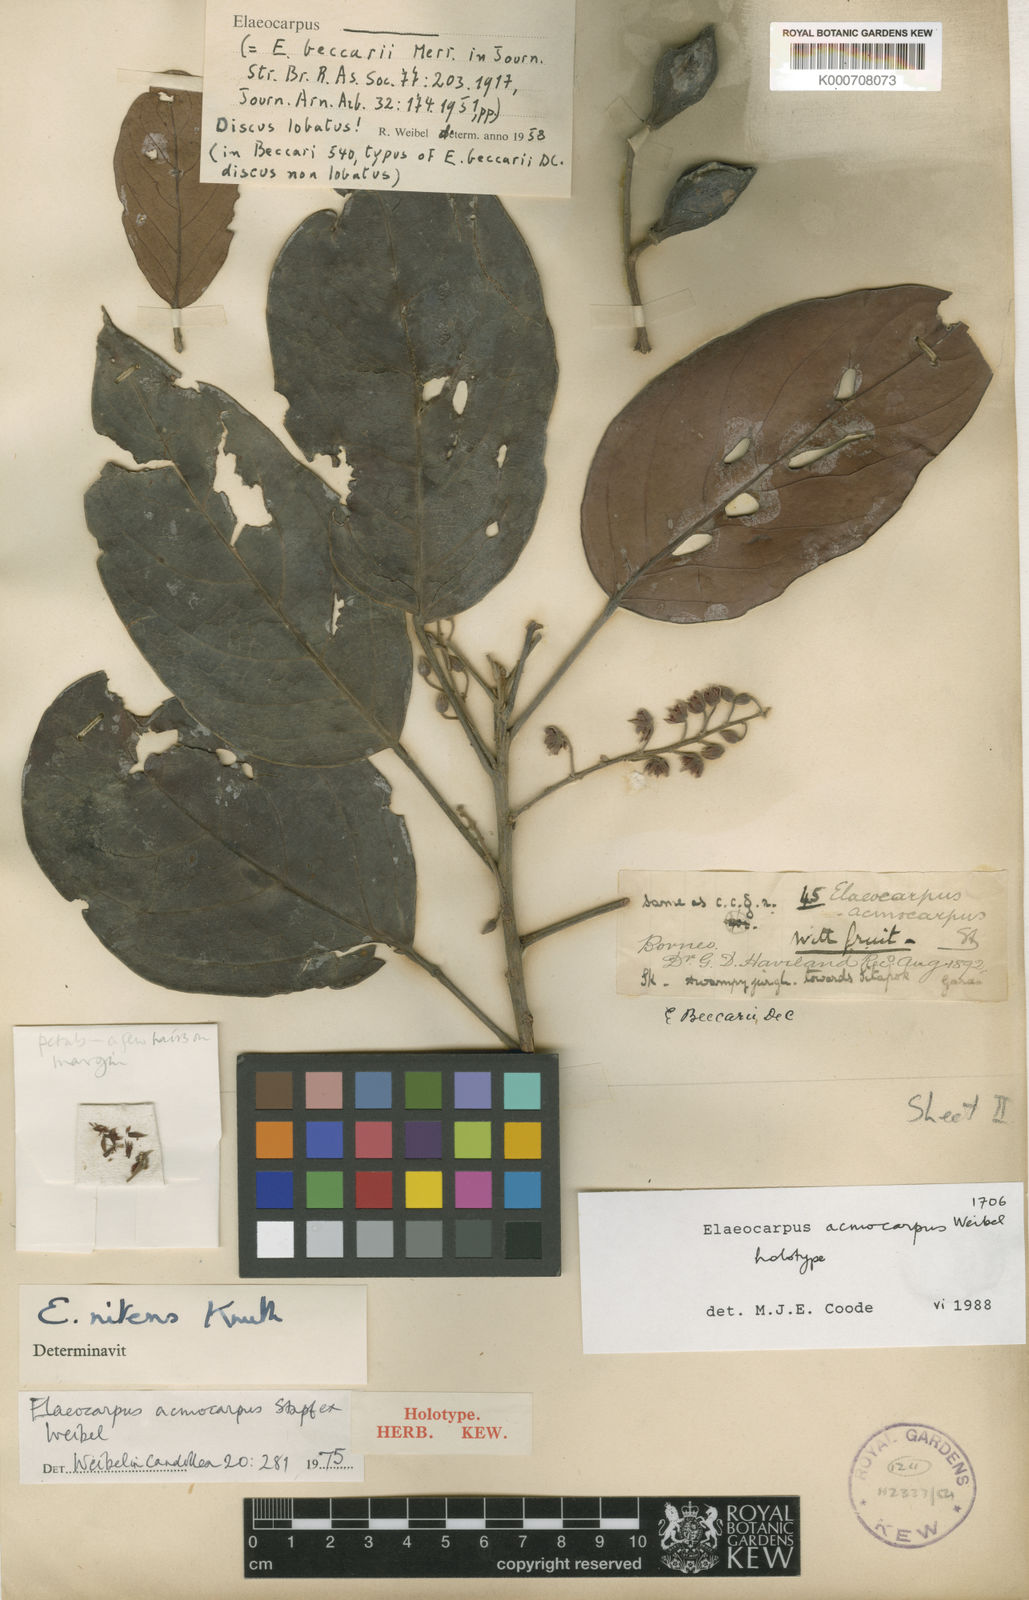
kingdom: Plantae
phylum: Tracheophyta
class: Magnoliopsida
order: Oxalidales
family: Elaeocarpaceae
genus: Elaeocarpus
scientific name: Elaeocarpus acmocarpus
